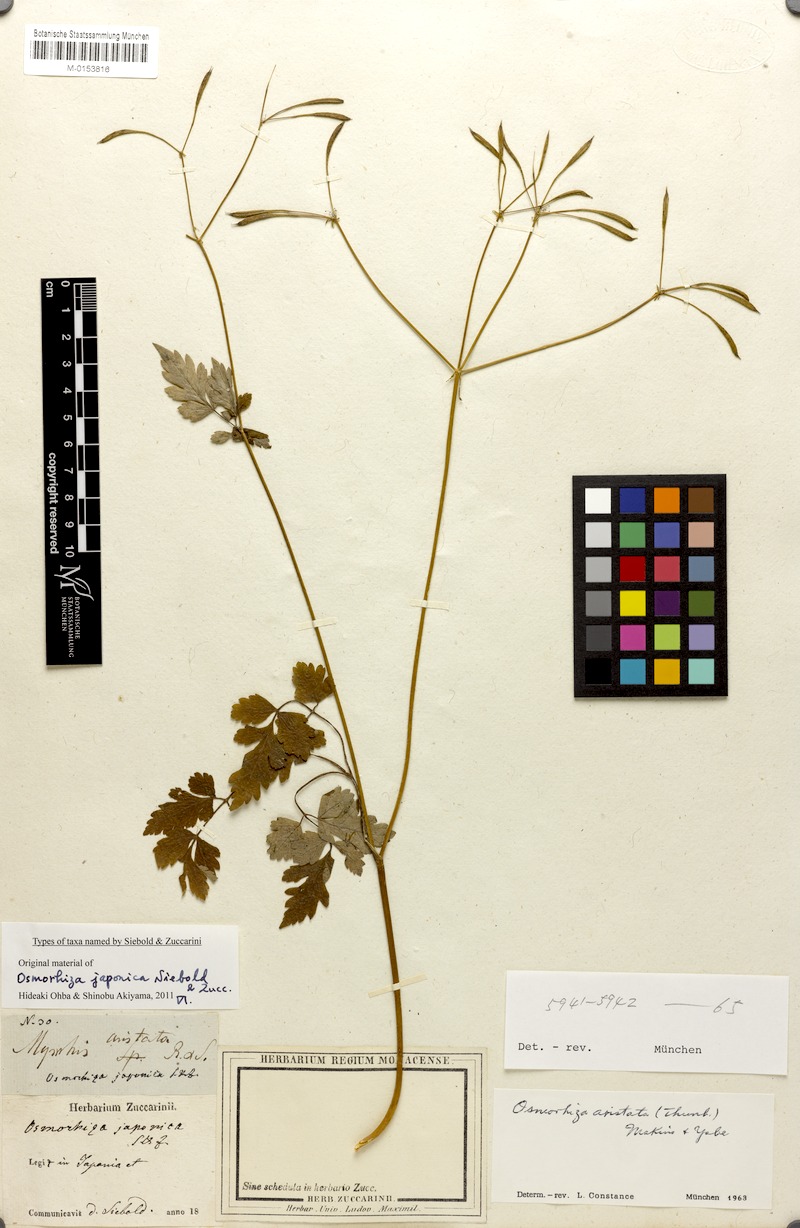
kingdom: Plantae
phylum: Tracheophyta
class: Magnoliopsida
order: Apiales
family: Apiaceae
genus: Osmorhiza
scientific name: Osmorhiza aristata
